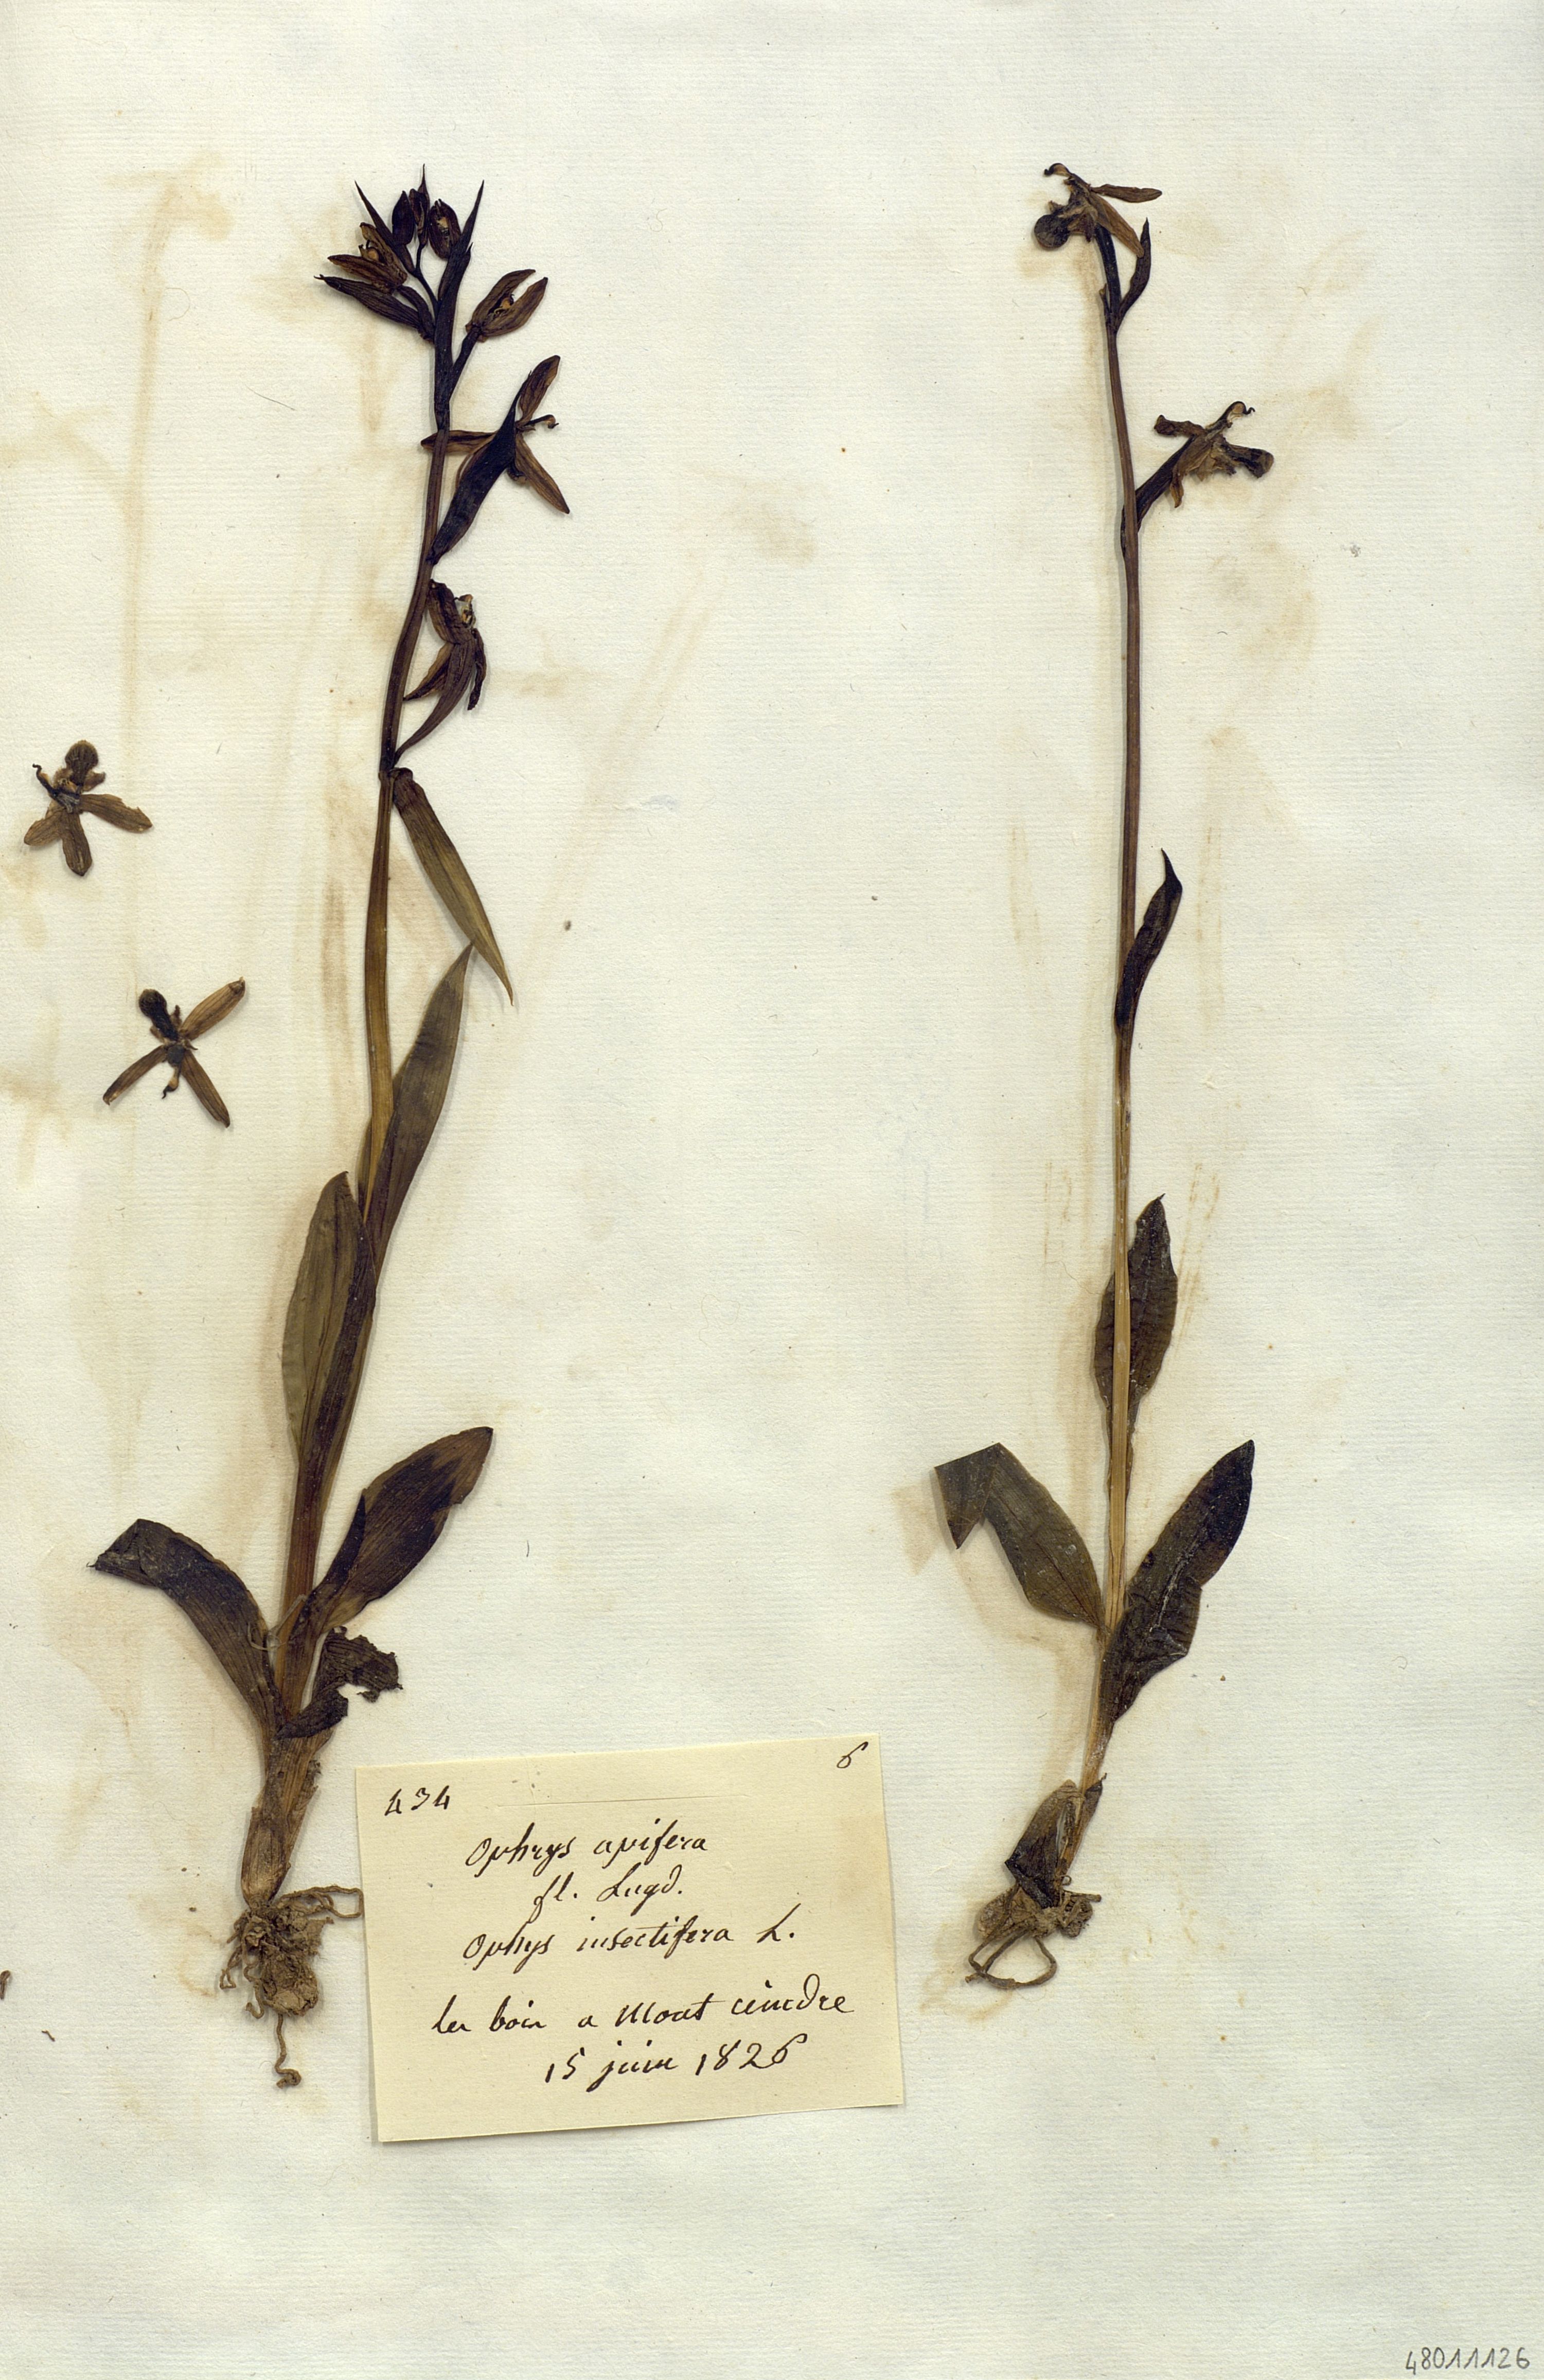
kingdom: Plantae
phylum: Tracheophyta
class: Liliopsida
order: Asparagales
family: Orchidaceae
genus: Ophrys
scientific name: Ophrys apifera
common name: Bee orchid
